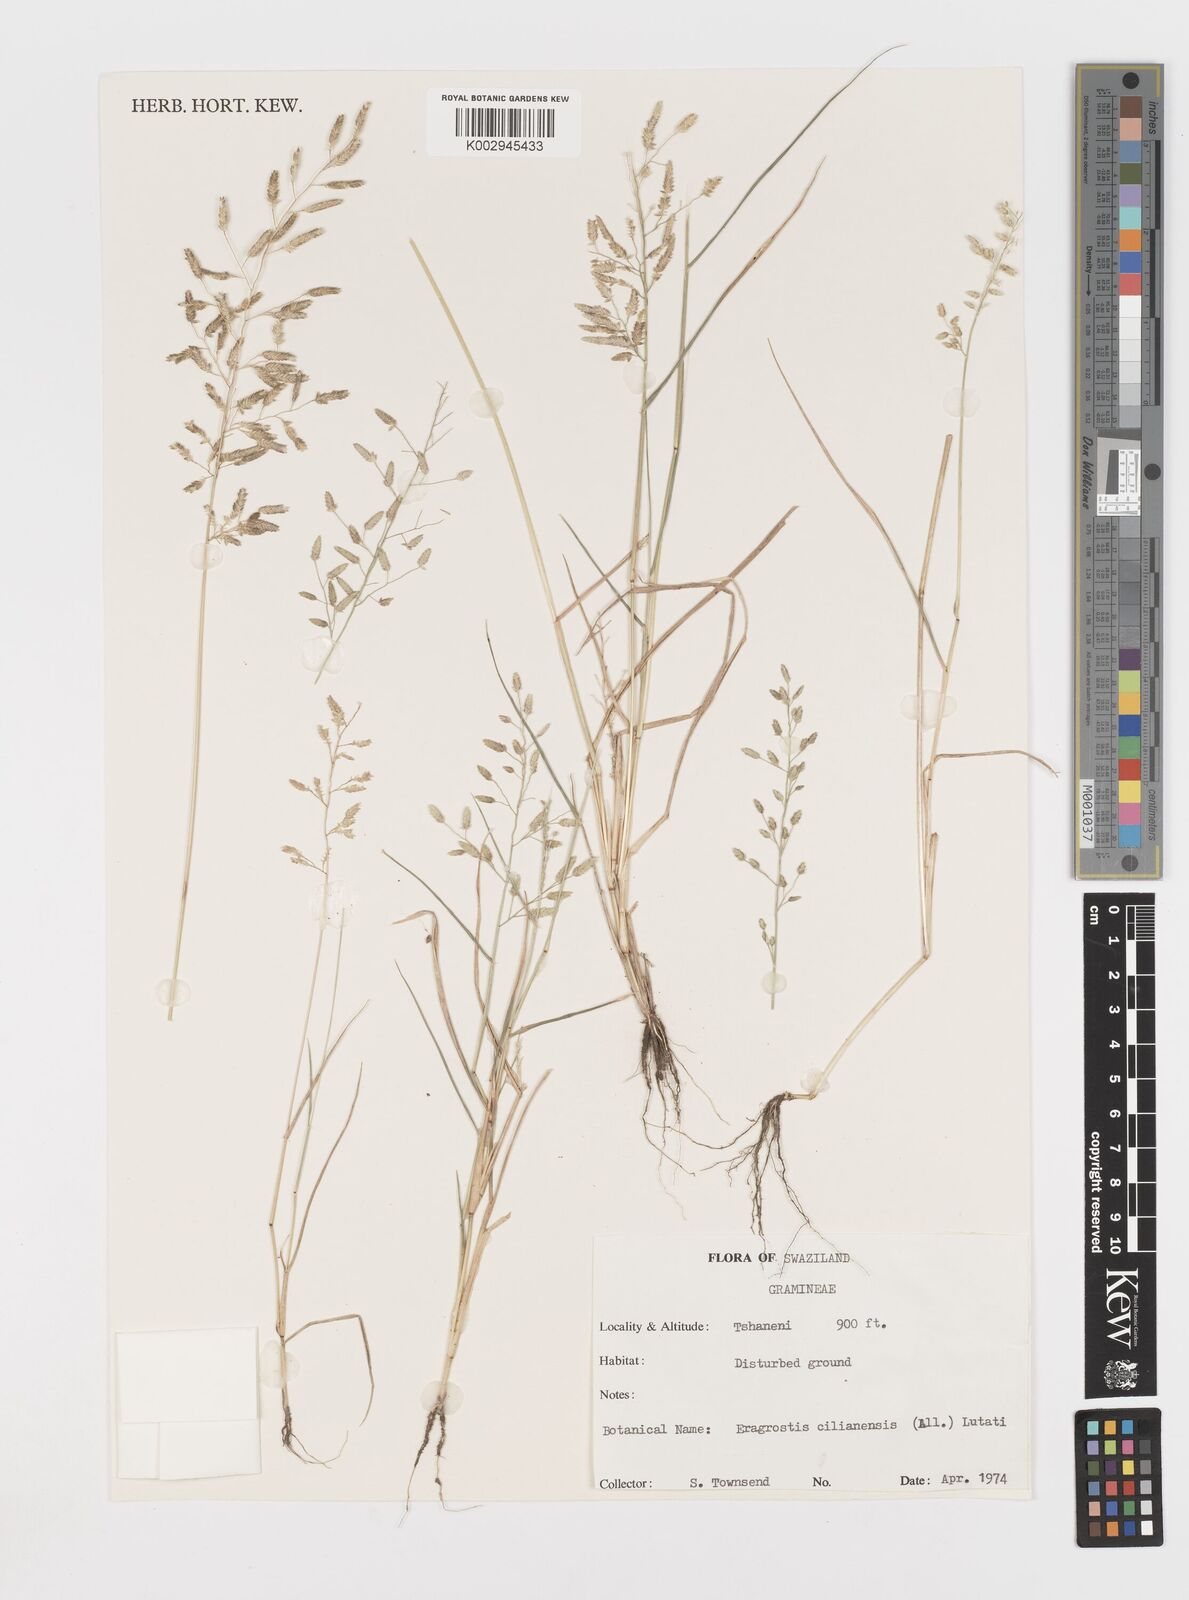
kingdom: Plantae
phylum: Tracheophyta
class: Liliopsida
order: Poales
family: Poaceae
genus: Eragrostis
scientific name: Eragrostis cilianensis
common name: Stinkgrass
